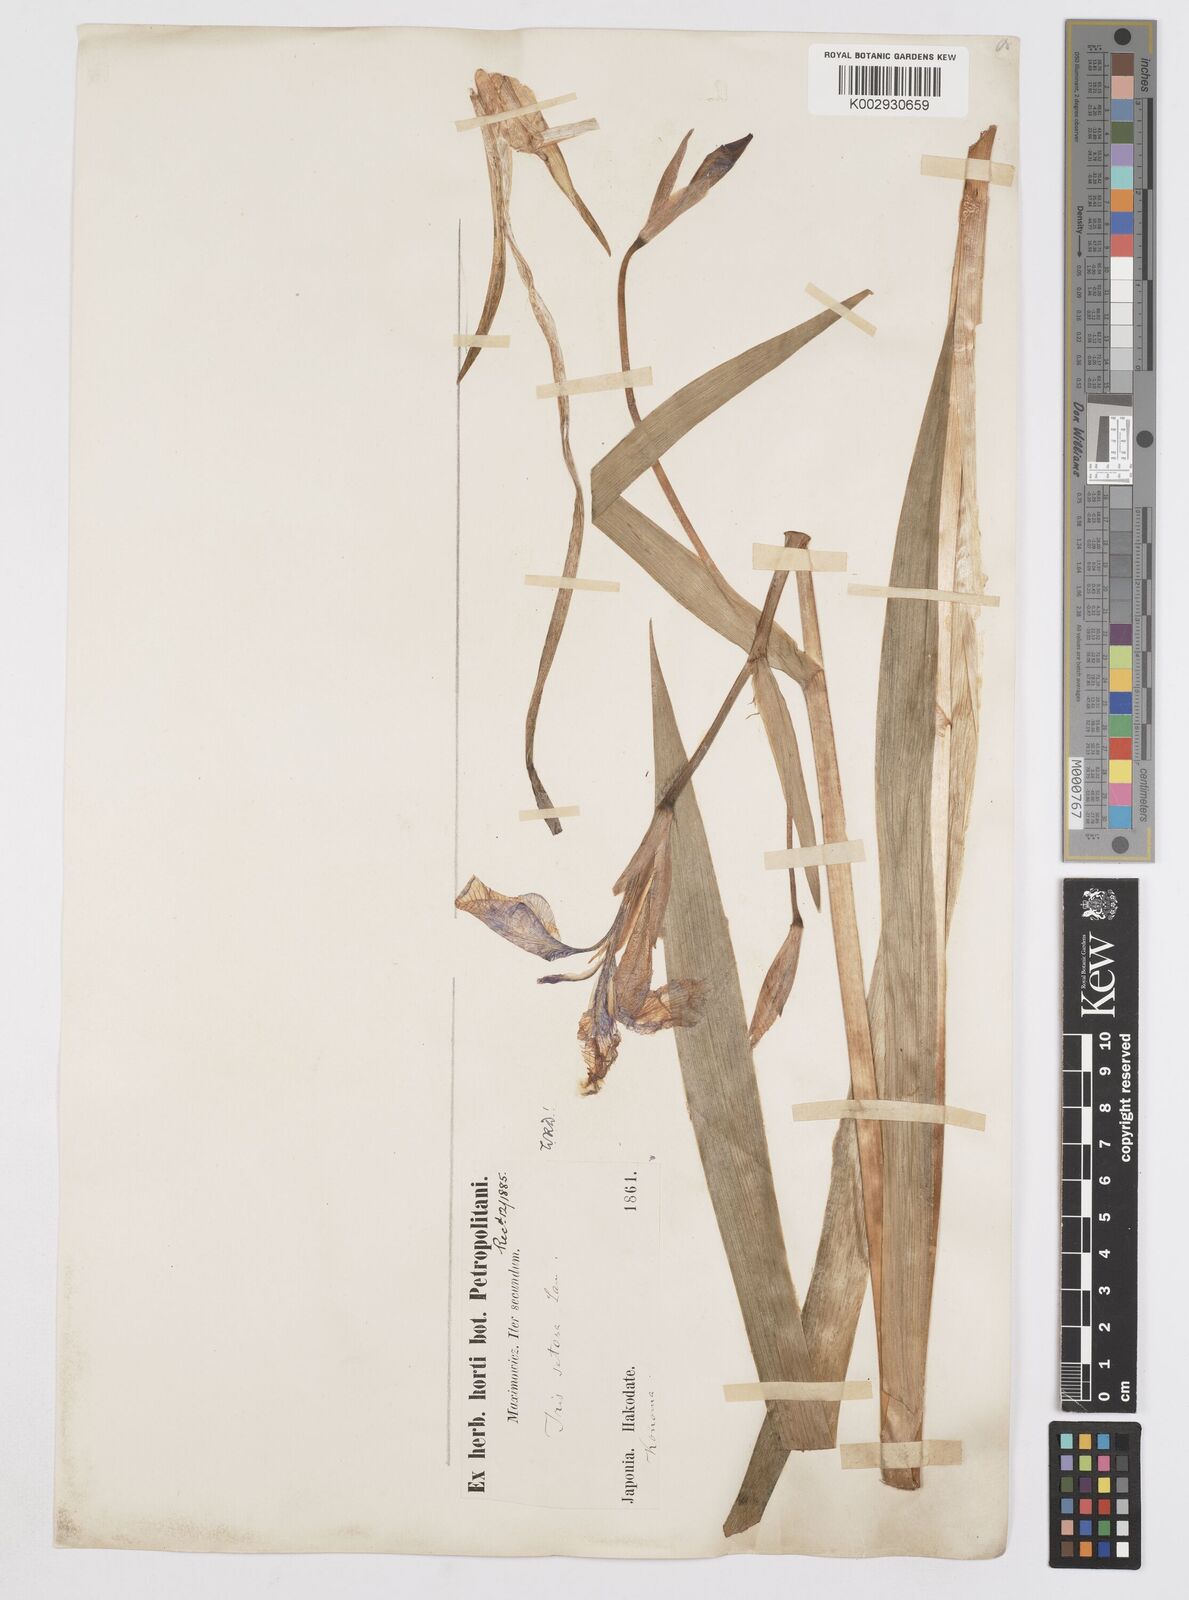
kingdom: Plantae
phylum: Tracheophyta
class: Liliopsida
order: Asparagales
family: Iridaceae
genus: Iris
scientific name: Iris setosa
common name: Arctic blue flag
